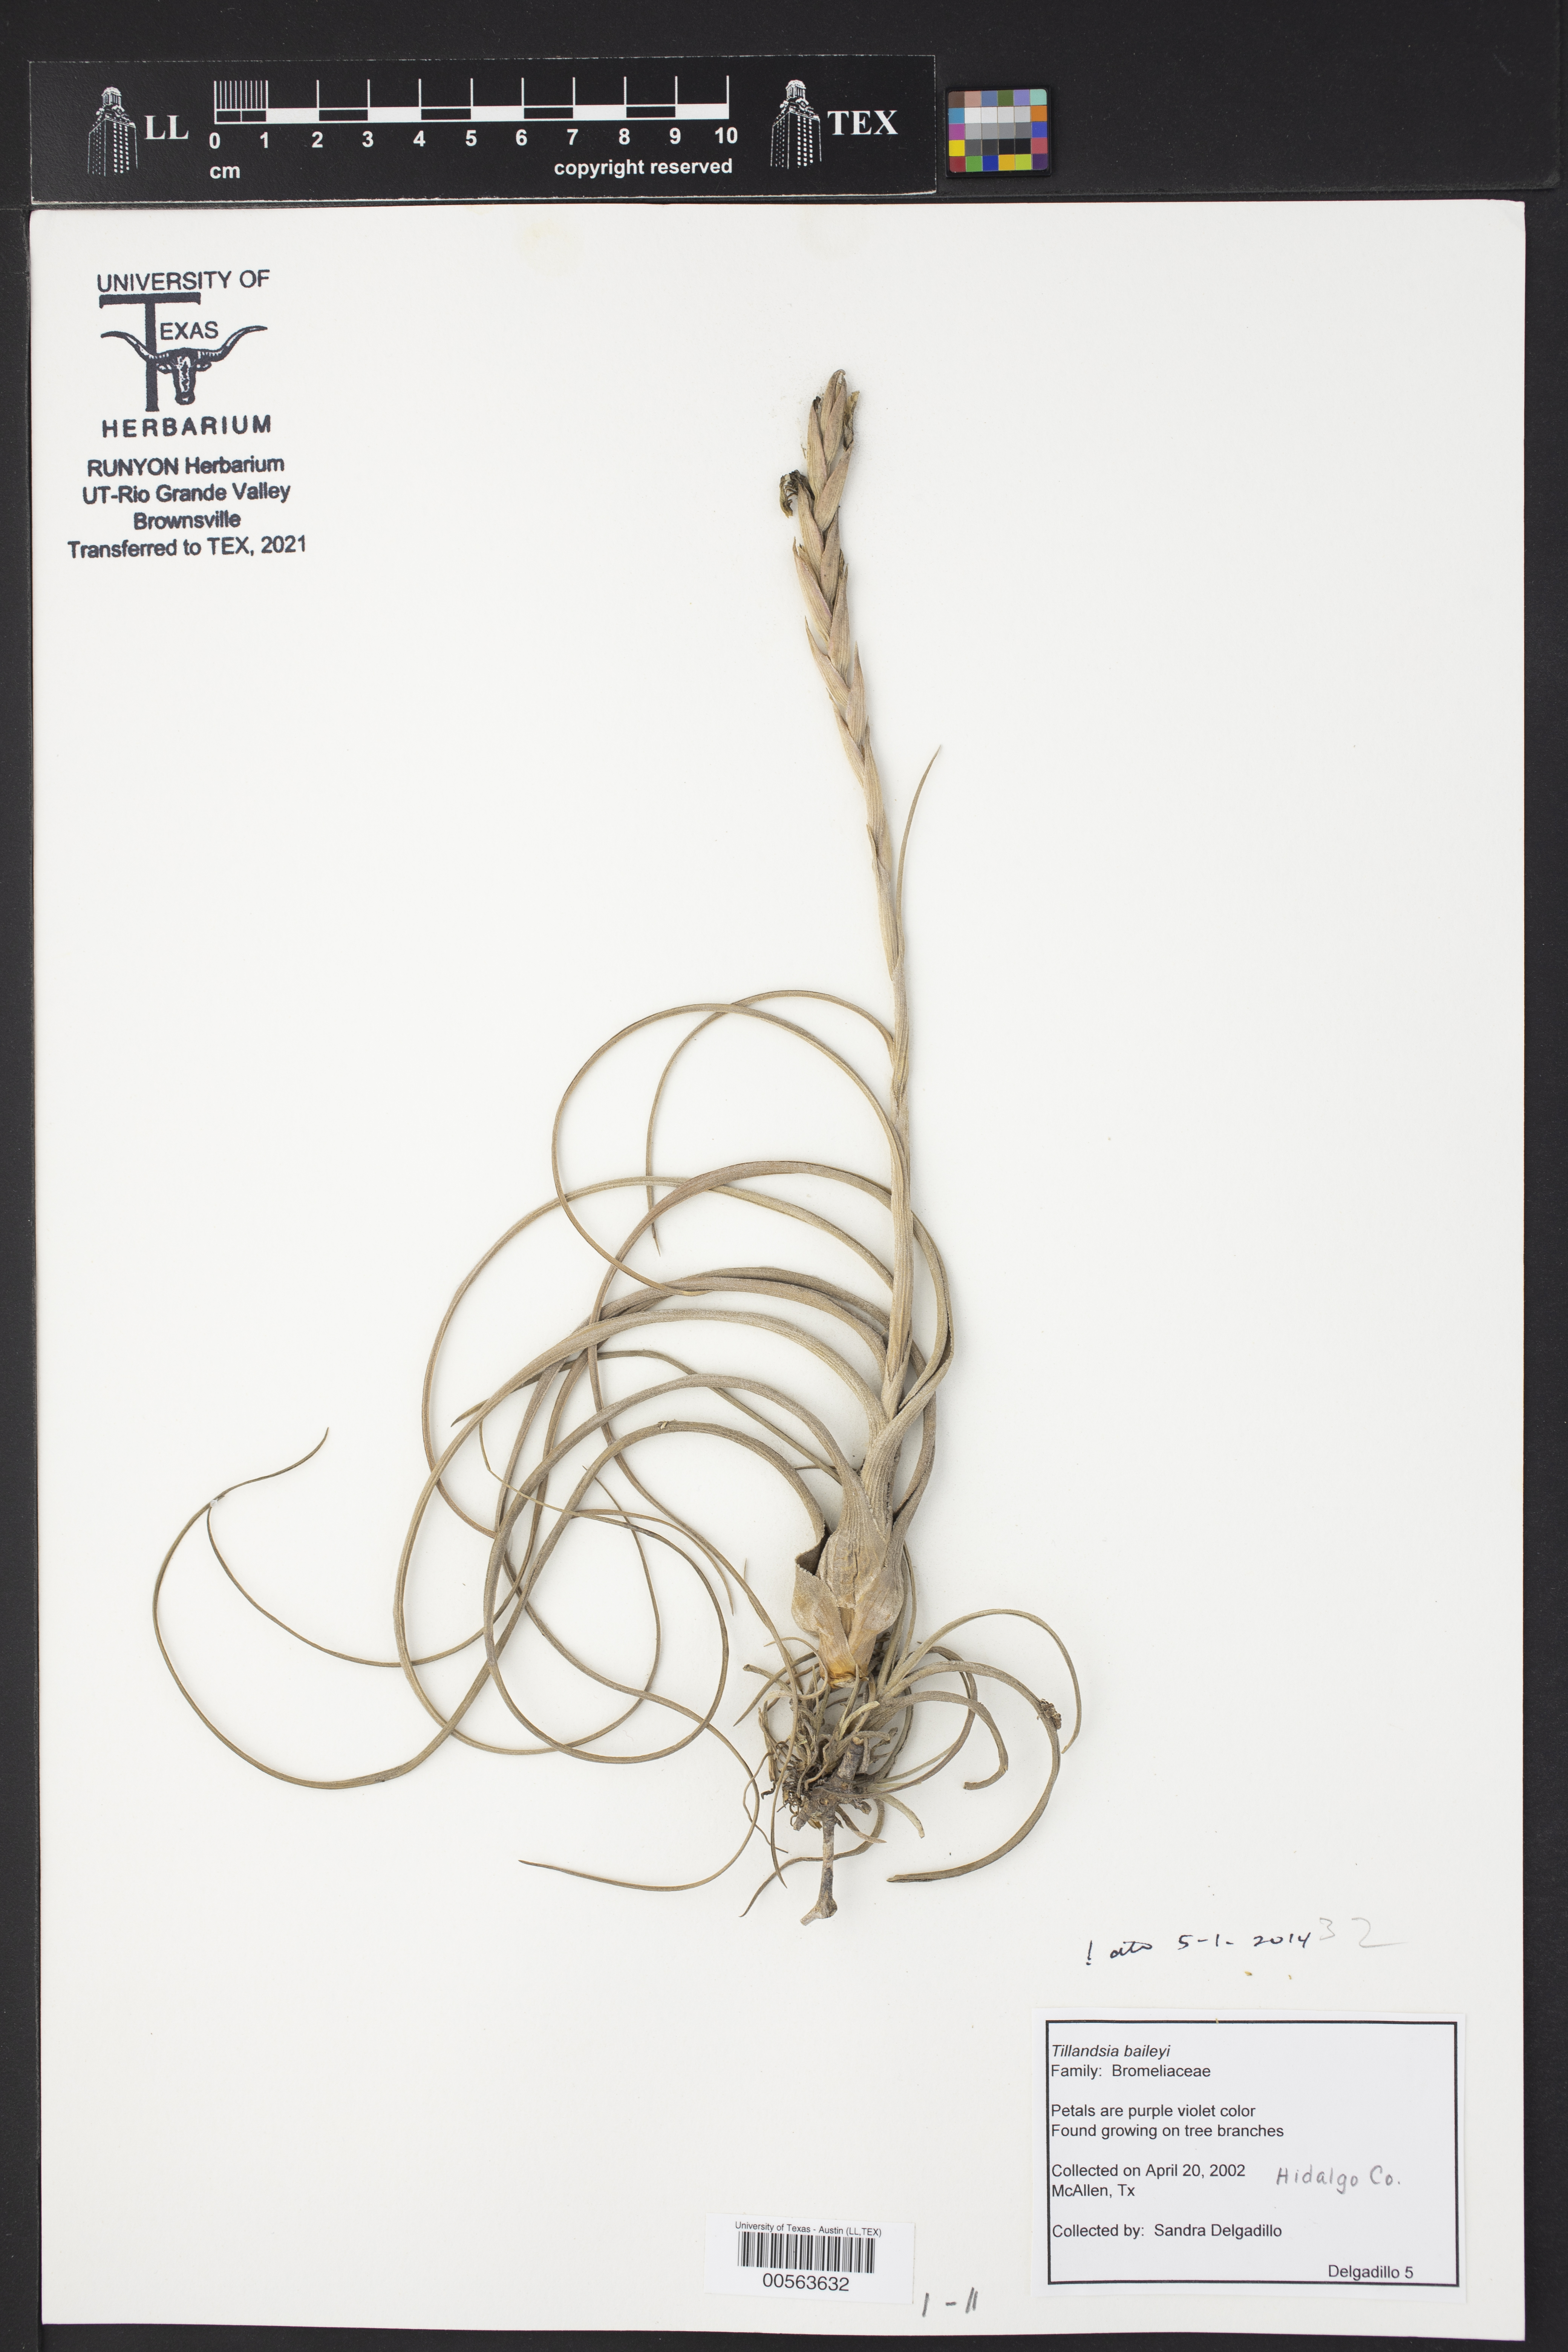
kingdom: Plantae
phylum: Tracheophyta
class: Liliopsida
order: Poales
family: Bromeliaceae
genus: Tillandsia
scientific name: Tillandsia baileyi
